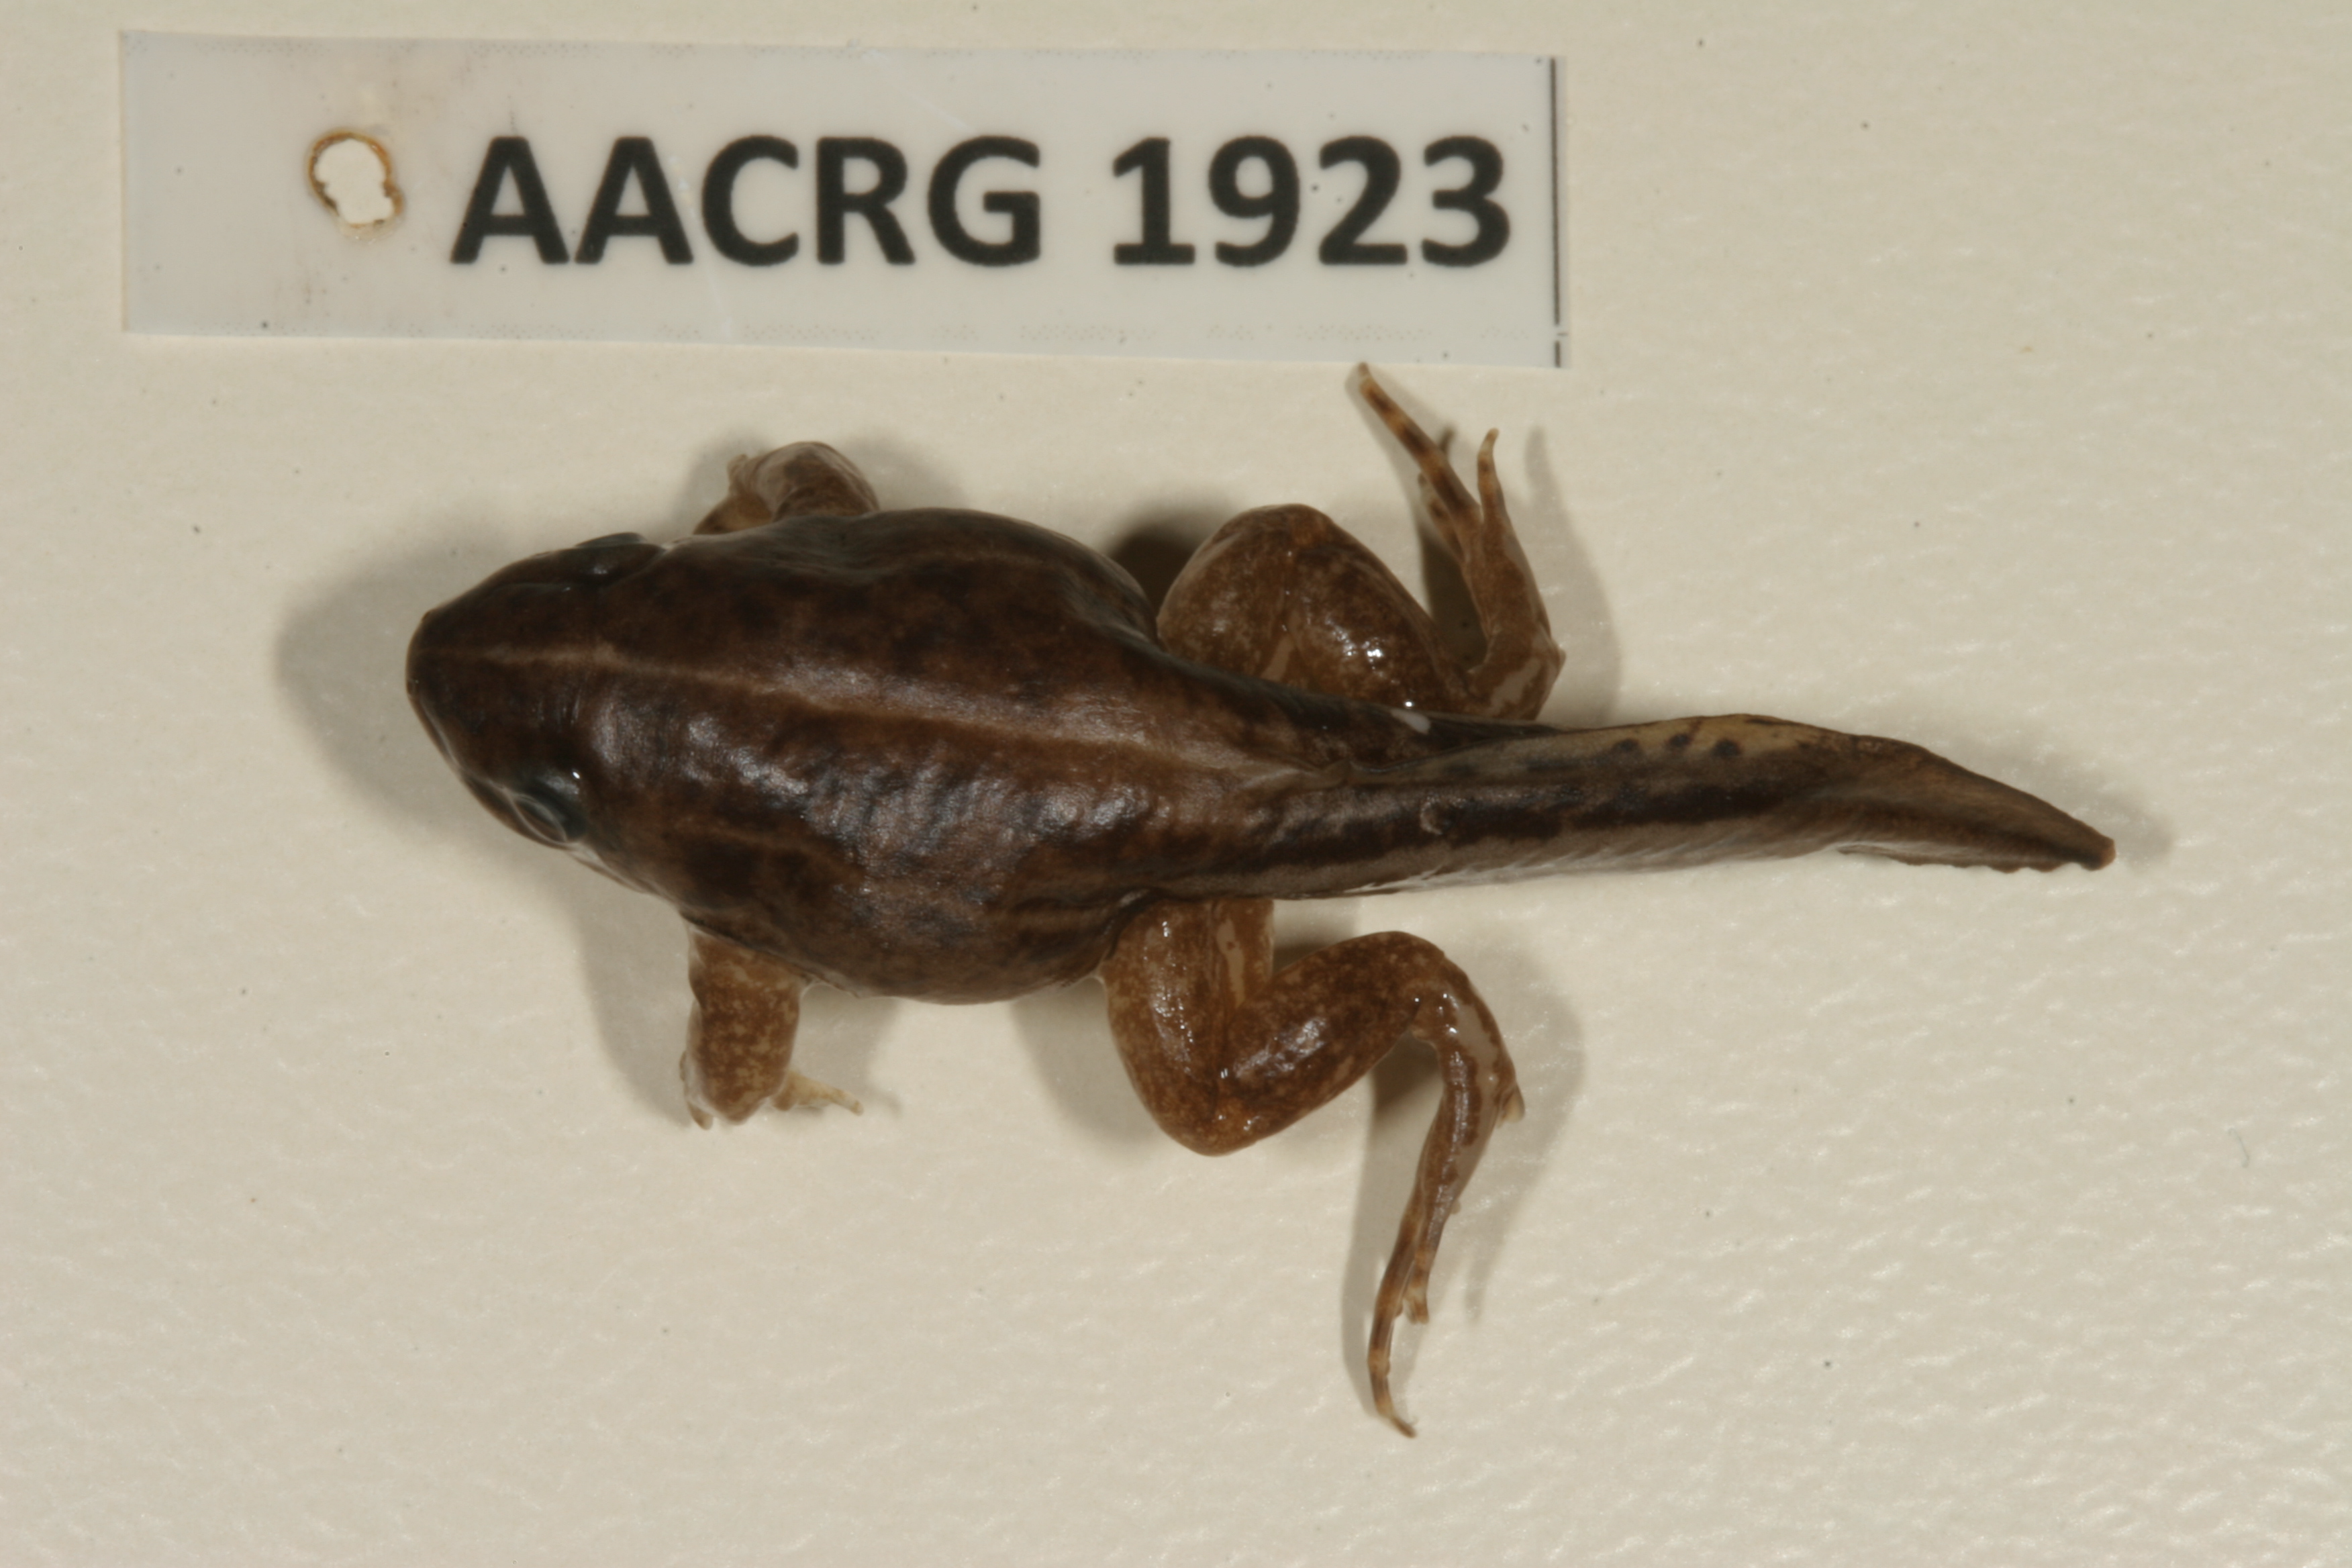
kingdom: Animalia
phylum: Chordata
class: Amphibia
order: Anura
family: Hemisotidae
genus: Hemisus
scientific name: Hemisus guineensis
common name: Guinea snout-burrower
